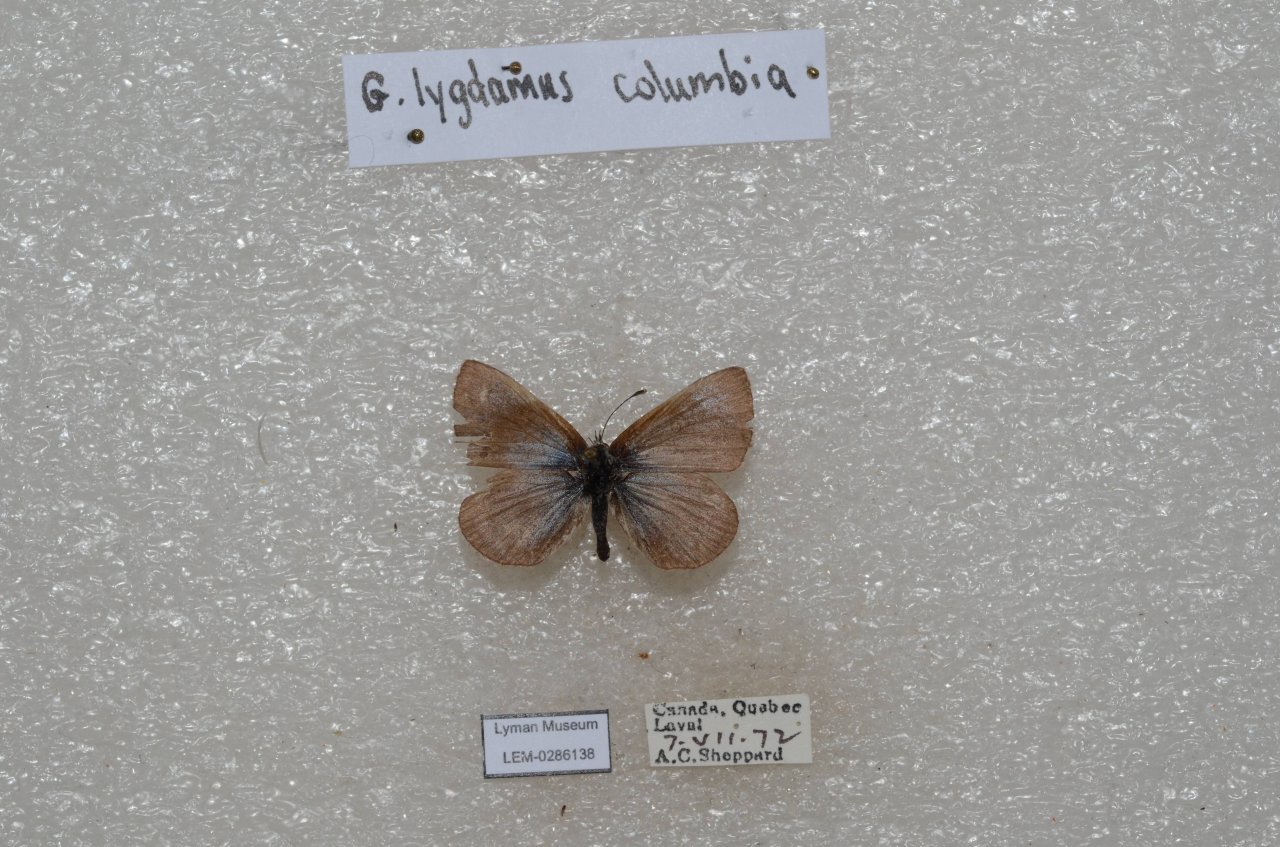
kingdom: Animalia
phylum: Arthropoda
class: Insecta
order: Lepidoptera
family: Lycaenidae
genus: Glaucopsyche
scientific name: Glaucopsyche lygdamus
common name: Silvery Blue
